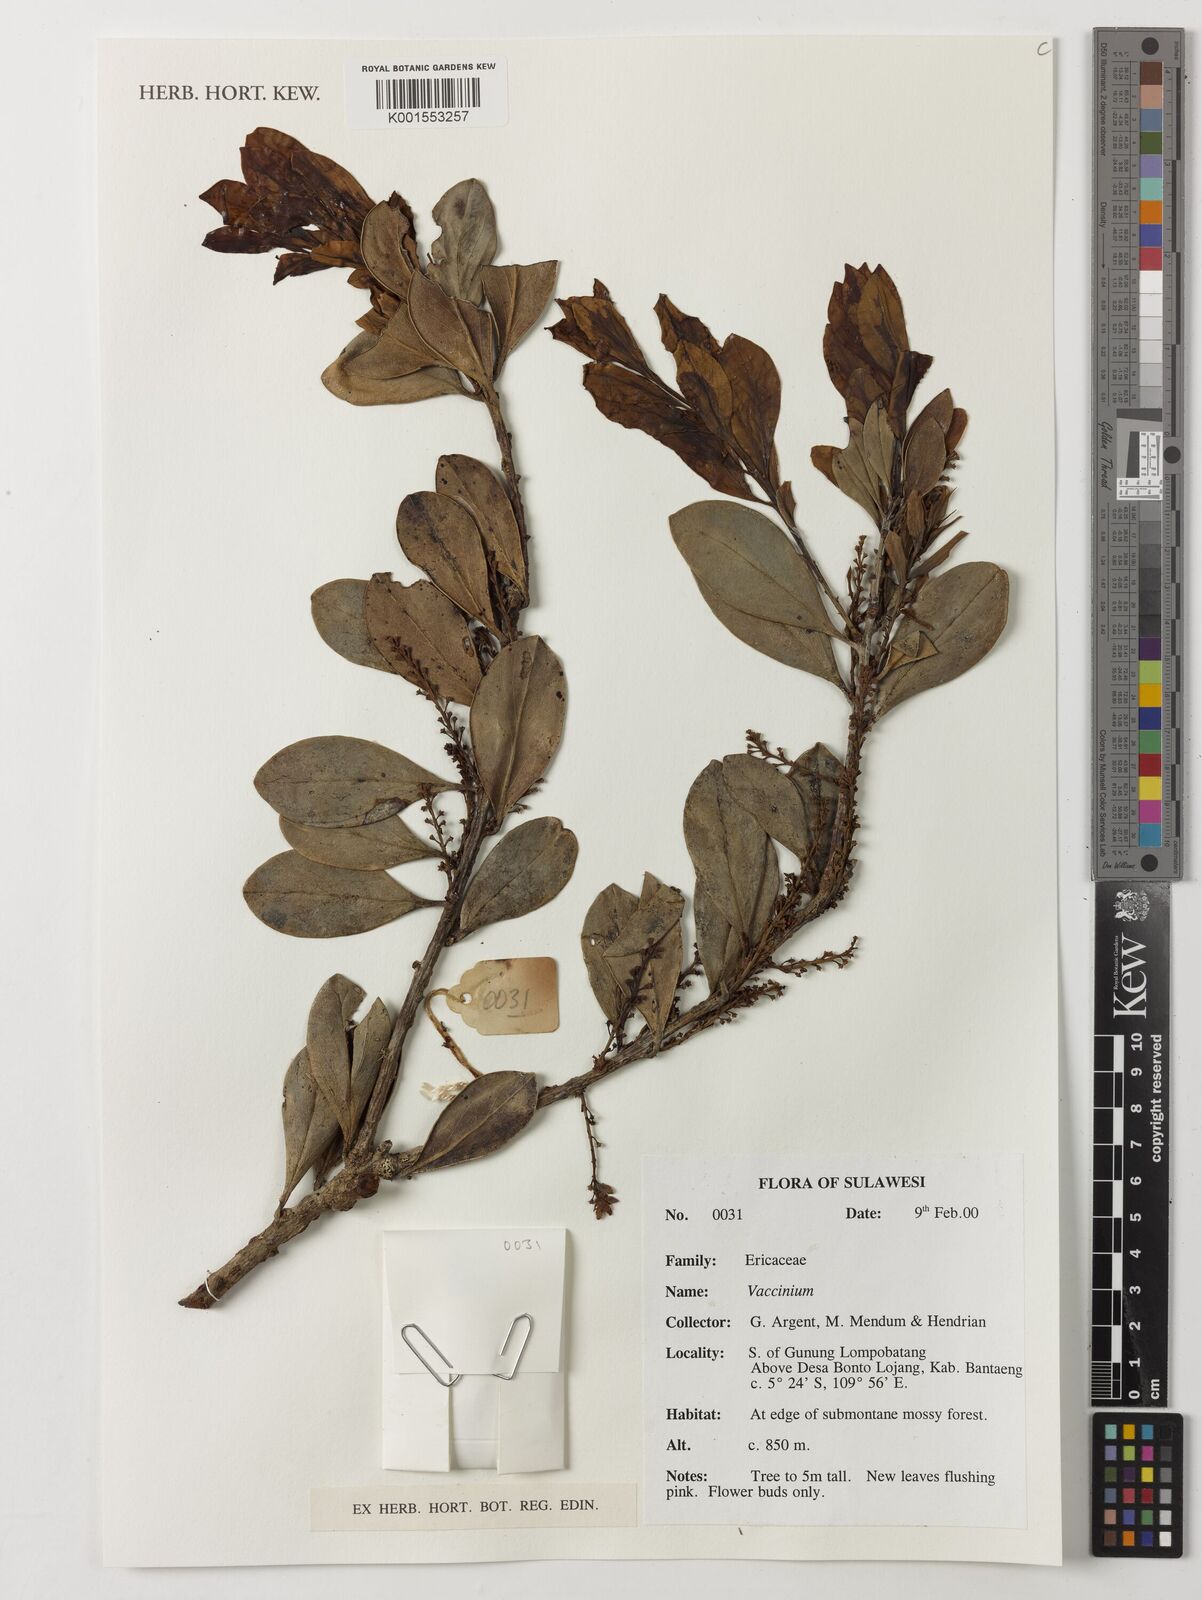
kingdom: Plantae
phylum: Tracheophyta
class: Magnoliopsida
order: Ericales
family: Ericaceae
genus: Vaccinium
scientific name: Vaccinium
